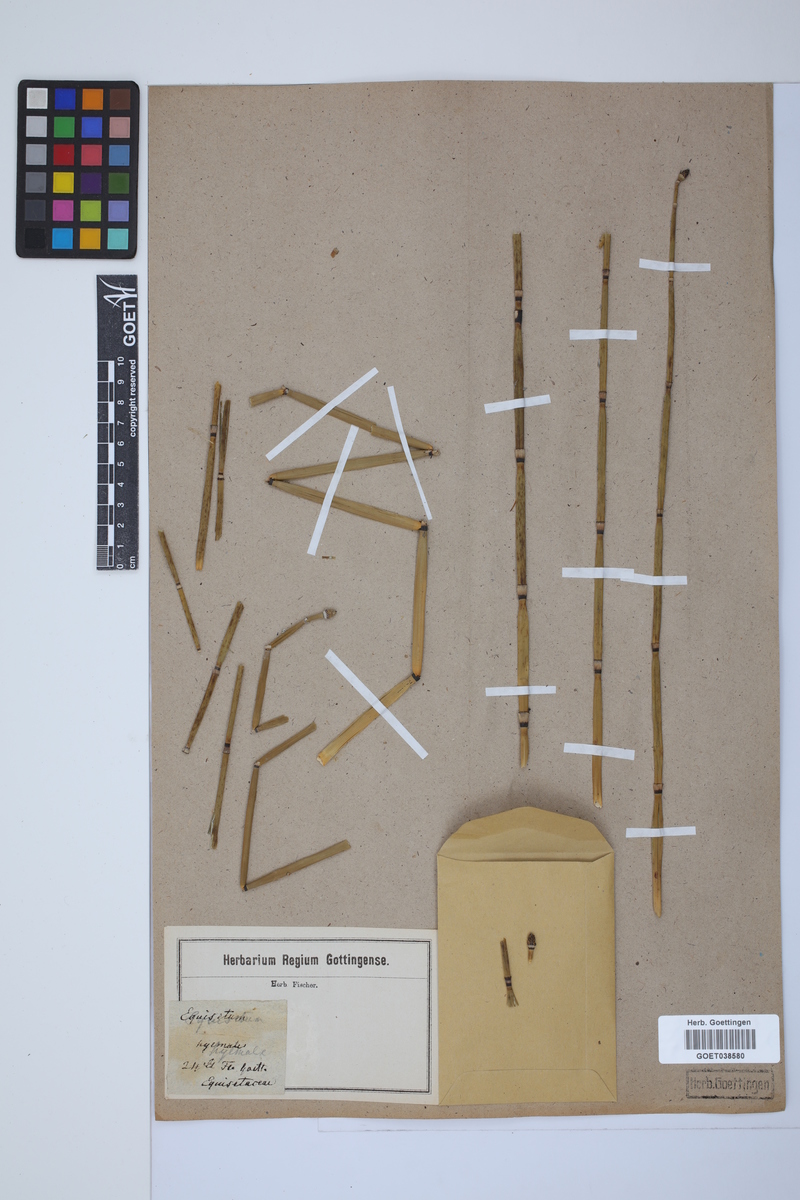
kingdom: Plantae
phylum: Tracheophyta
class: Polypodiopsida
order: Equisetales
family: Equisetaceae
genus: Equisetum
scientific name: Equisetum hyemale
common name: Rough horsetail
